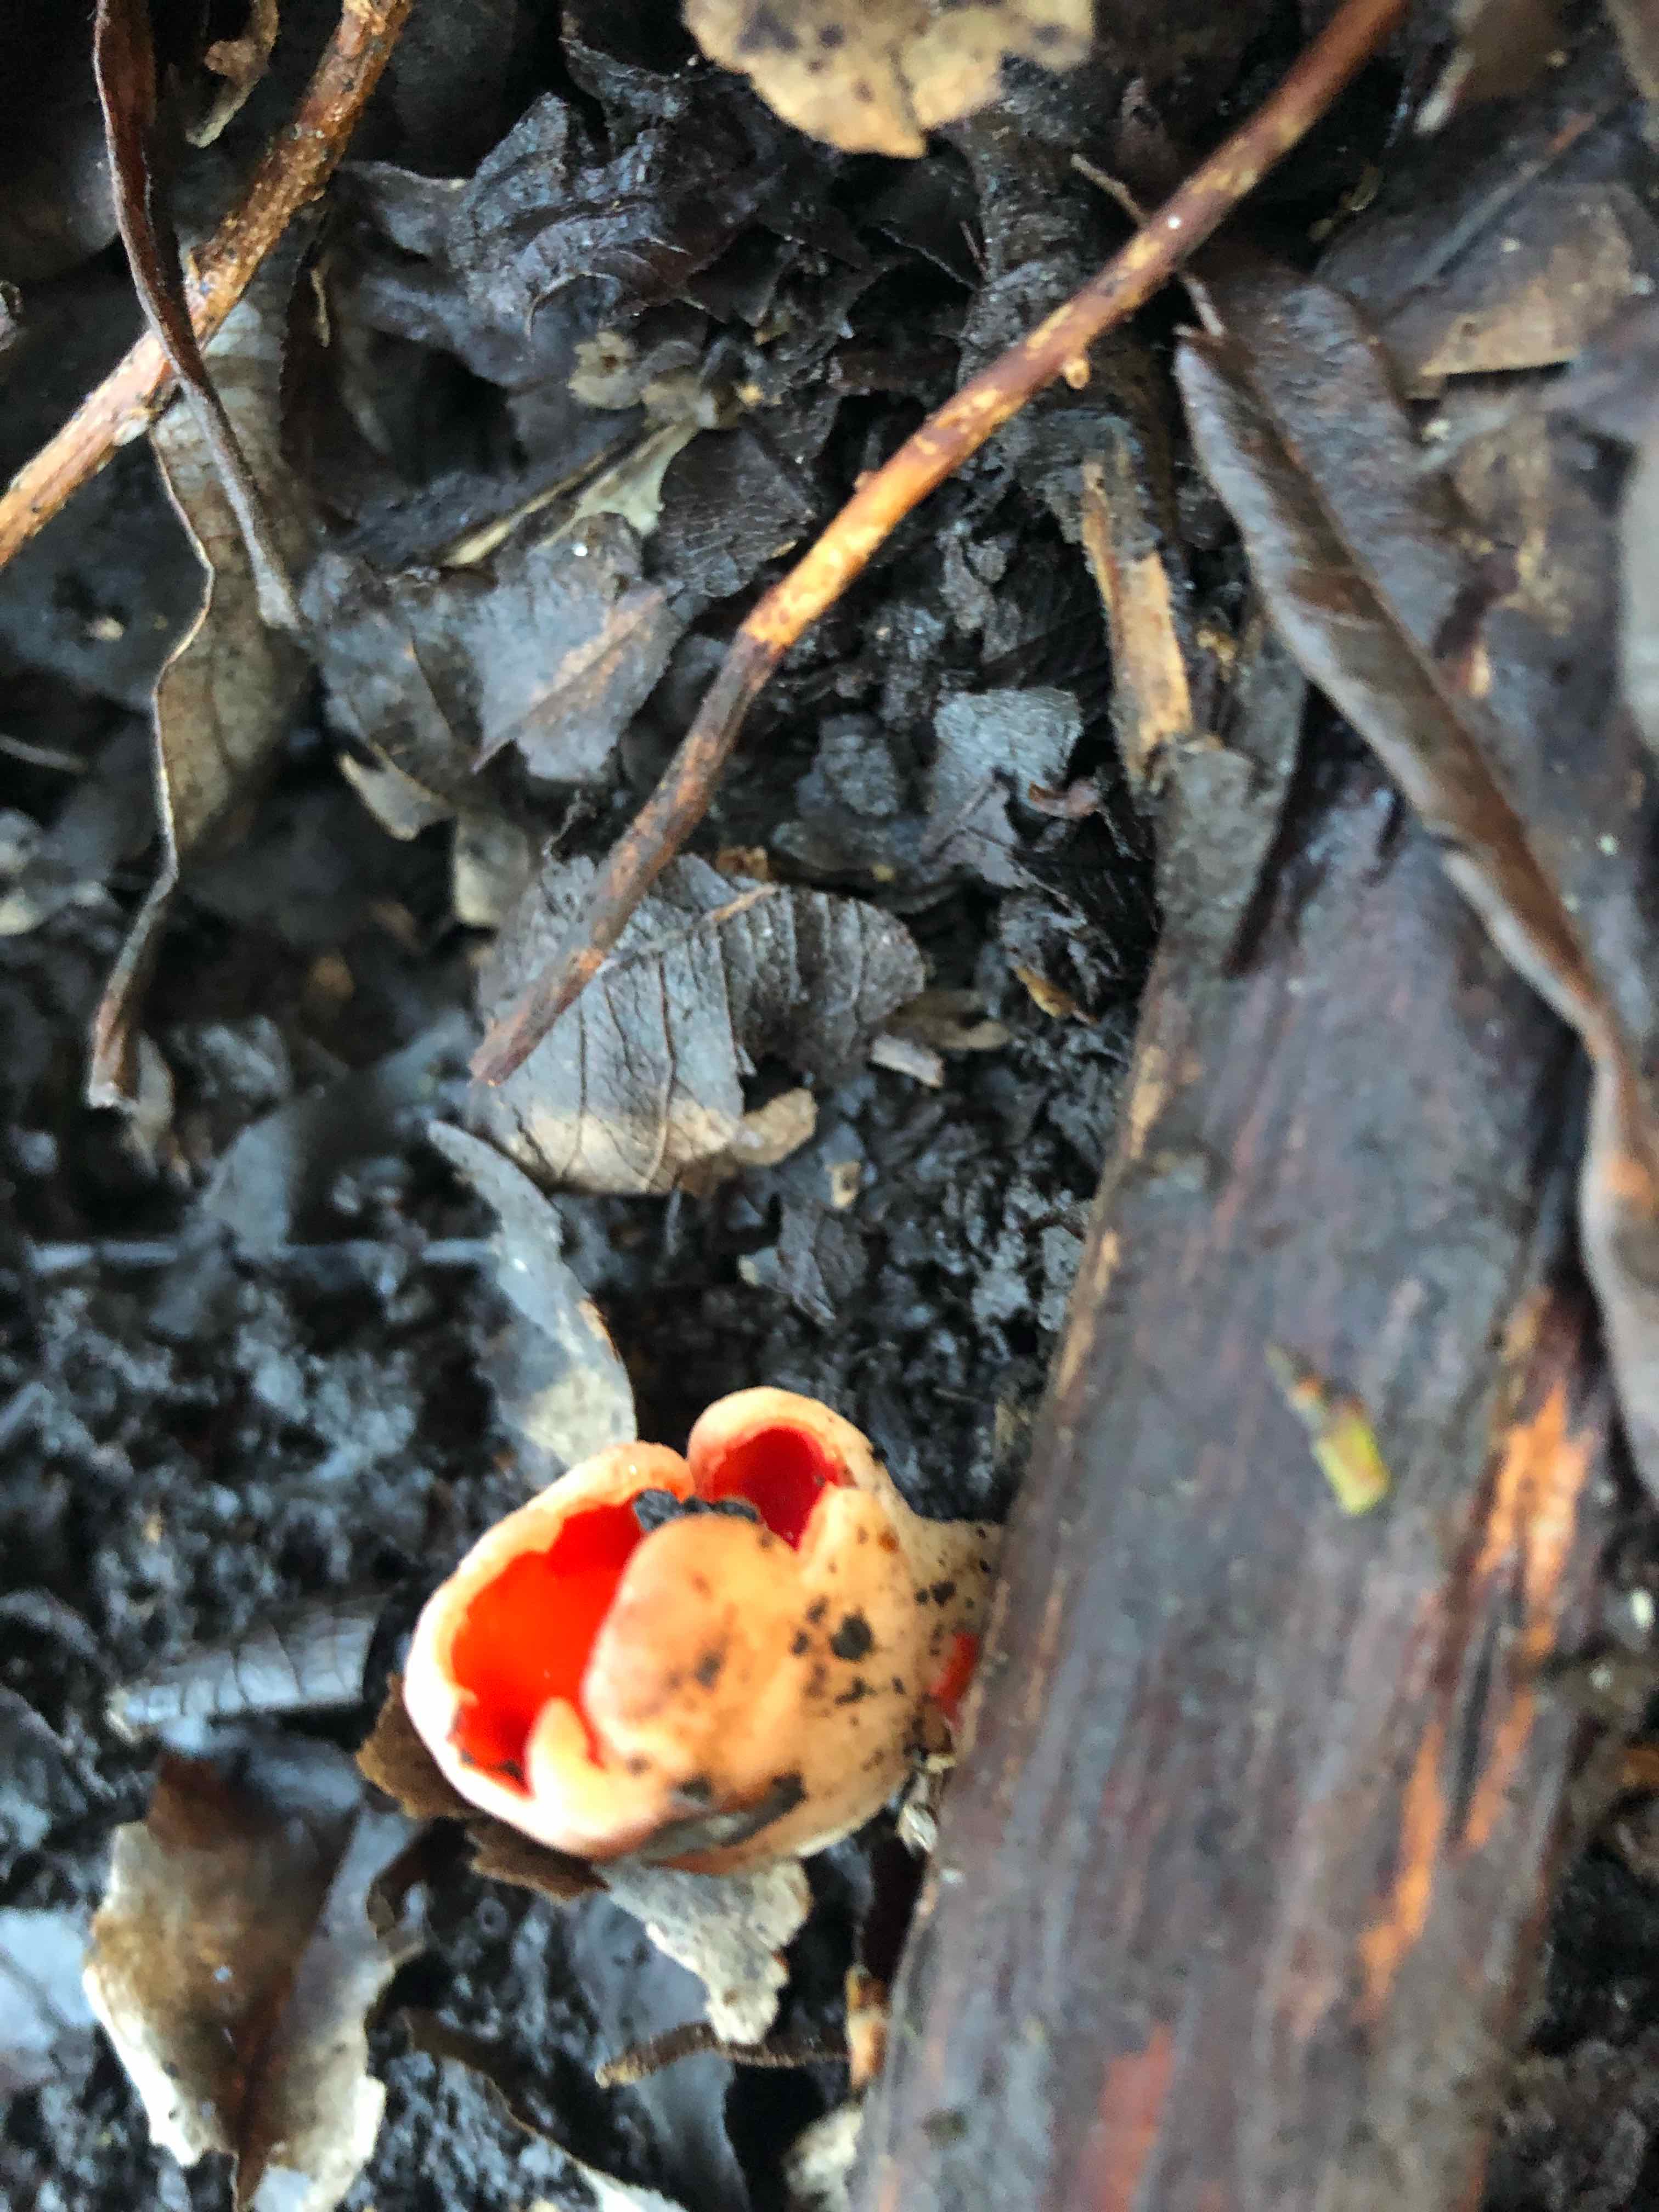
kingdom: Fungi
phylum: Ascomycota
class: Pezizomycetes
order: Pezizales
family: Sarcoscyphaceae
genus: Sarcoscypha
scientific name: Sarcoscypha austriaca
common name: krølhåret pragtbæger
